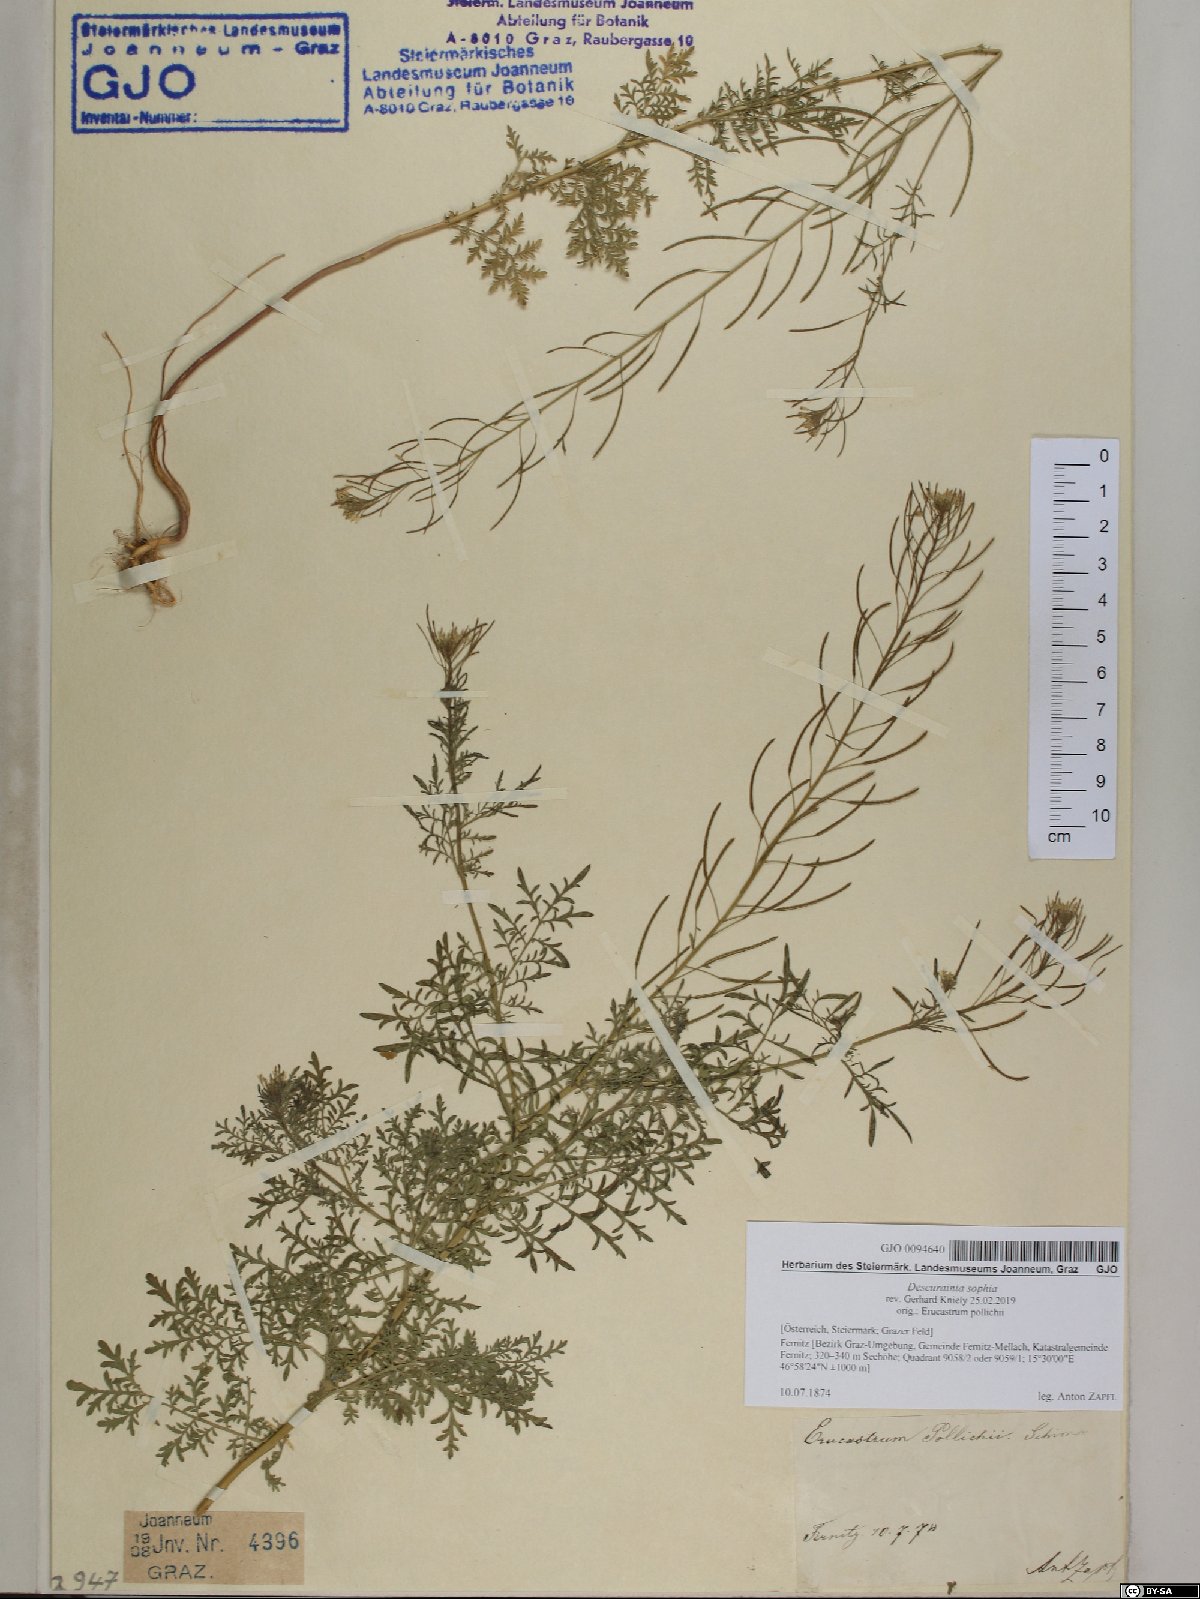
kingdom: Plantae
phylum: Tracheophyta
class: Magnoliopsida
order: Brassicales
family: Brassicaceae
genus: Descurainia
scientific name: Descurainia sophia
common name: Flixweed
